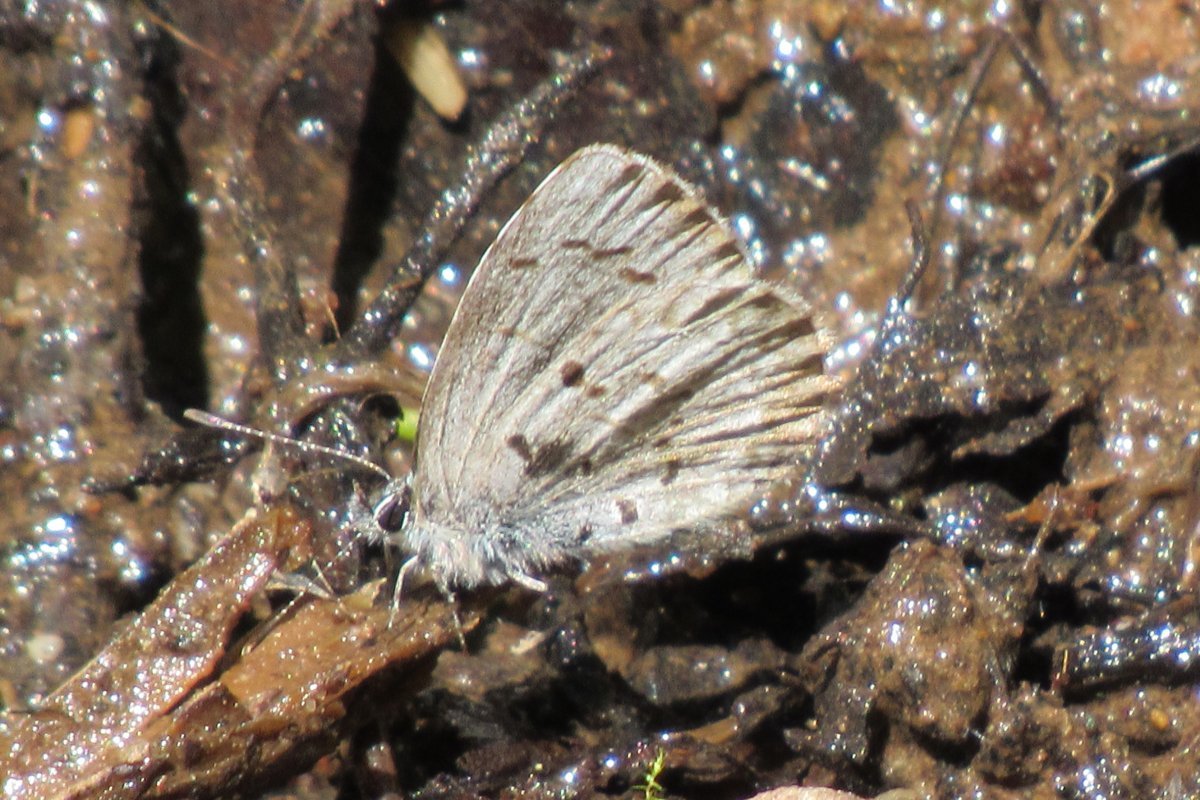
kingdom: Animalia
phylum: Arthropoda
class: Insecta
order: Lepidoptera
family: Lycaenidae
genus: Celastrina
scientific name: Celastrina lucia
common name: Northern Spring Azure
